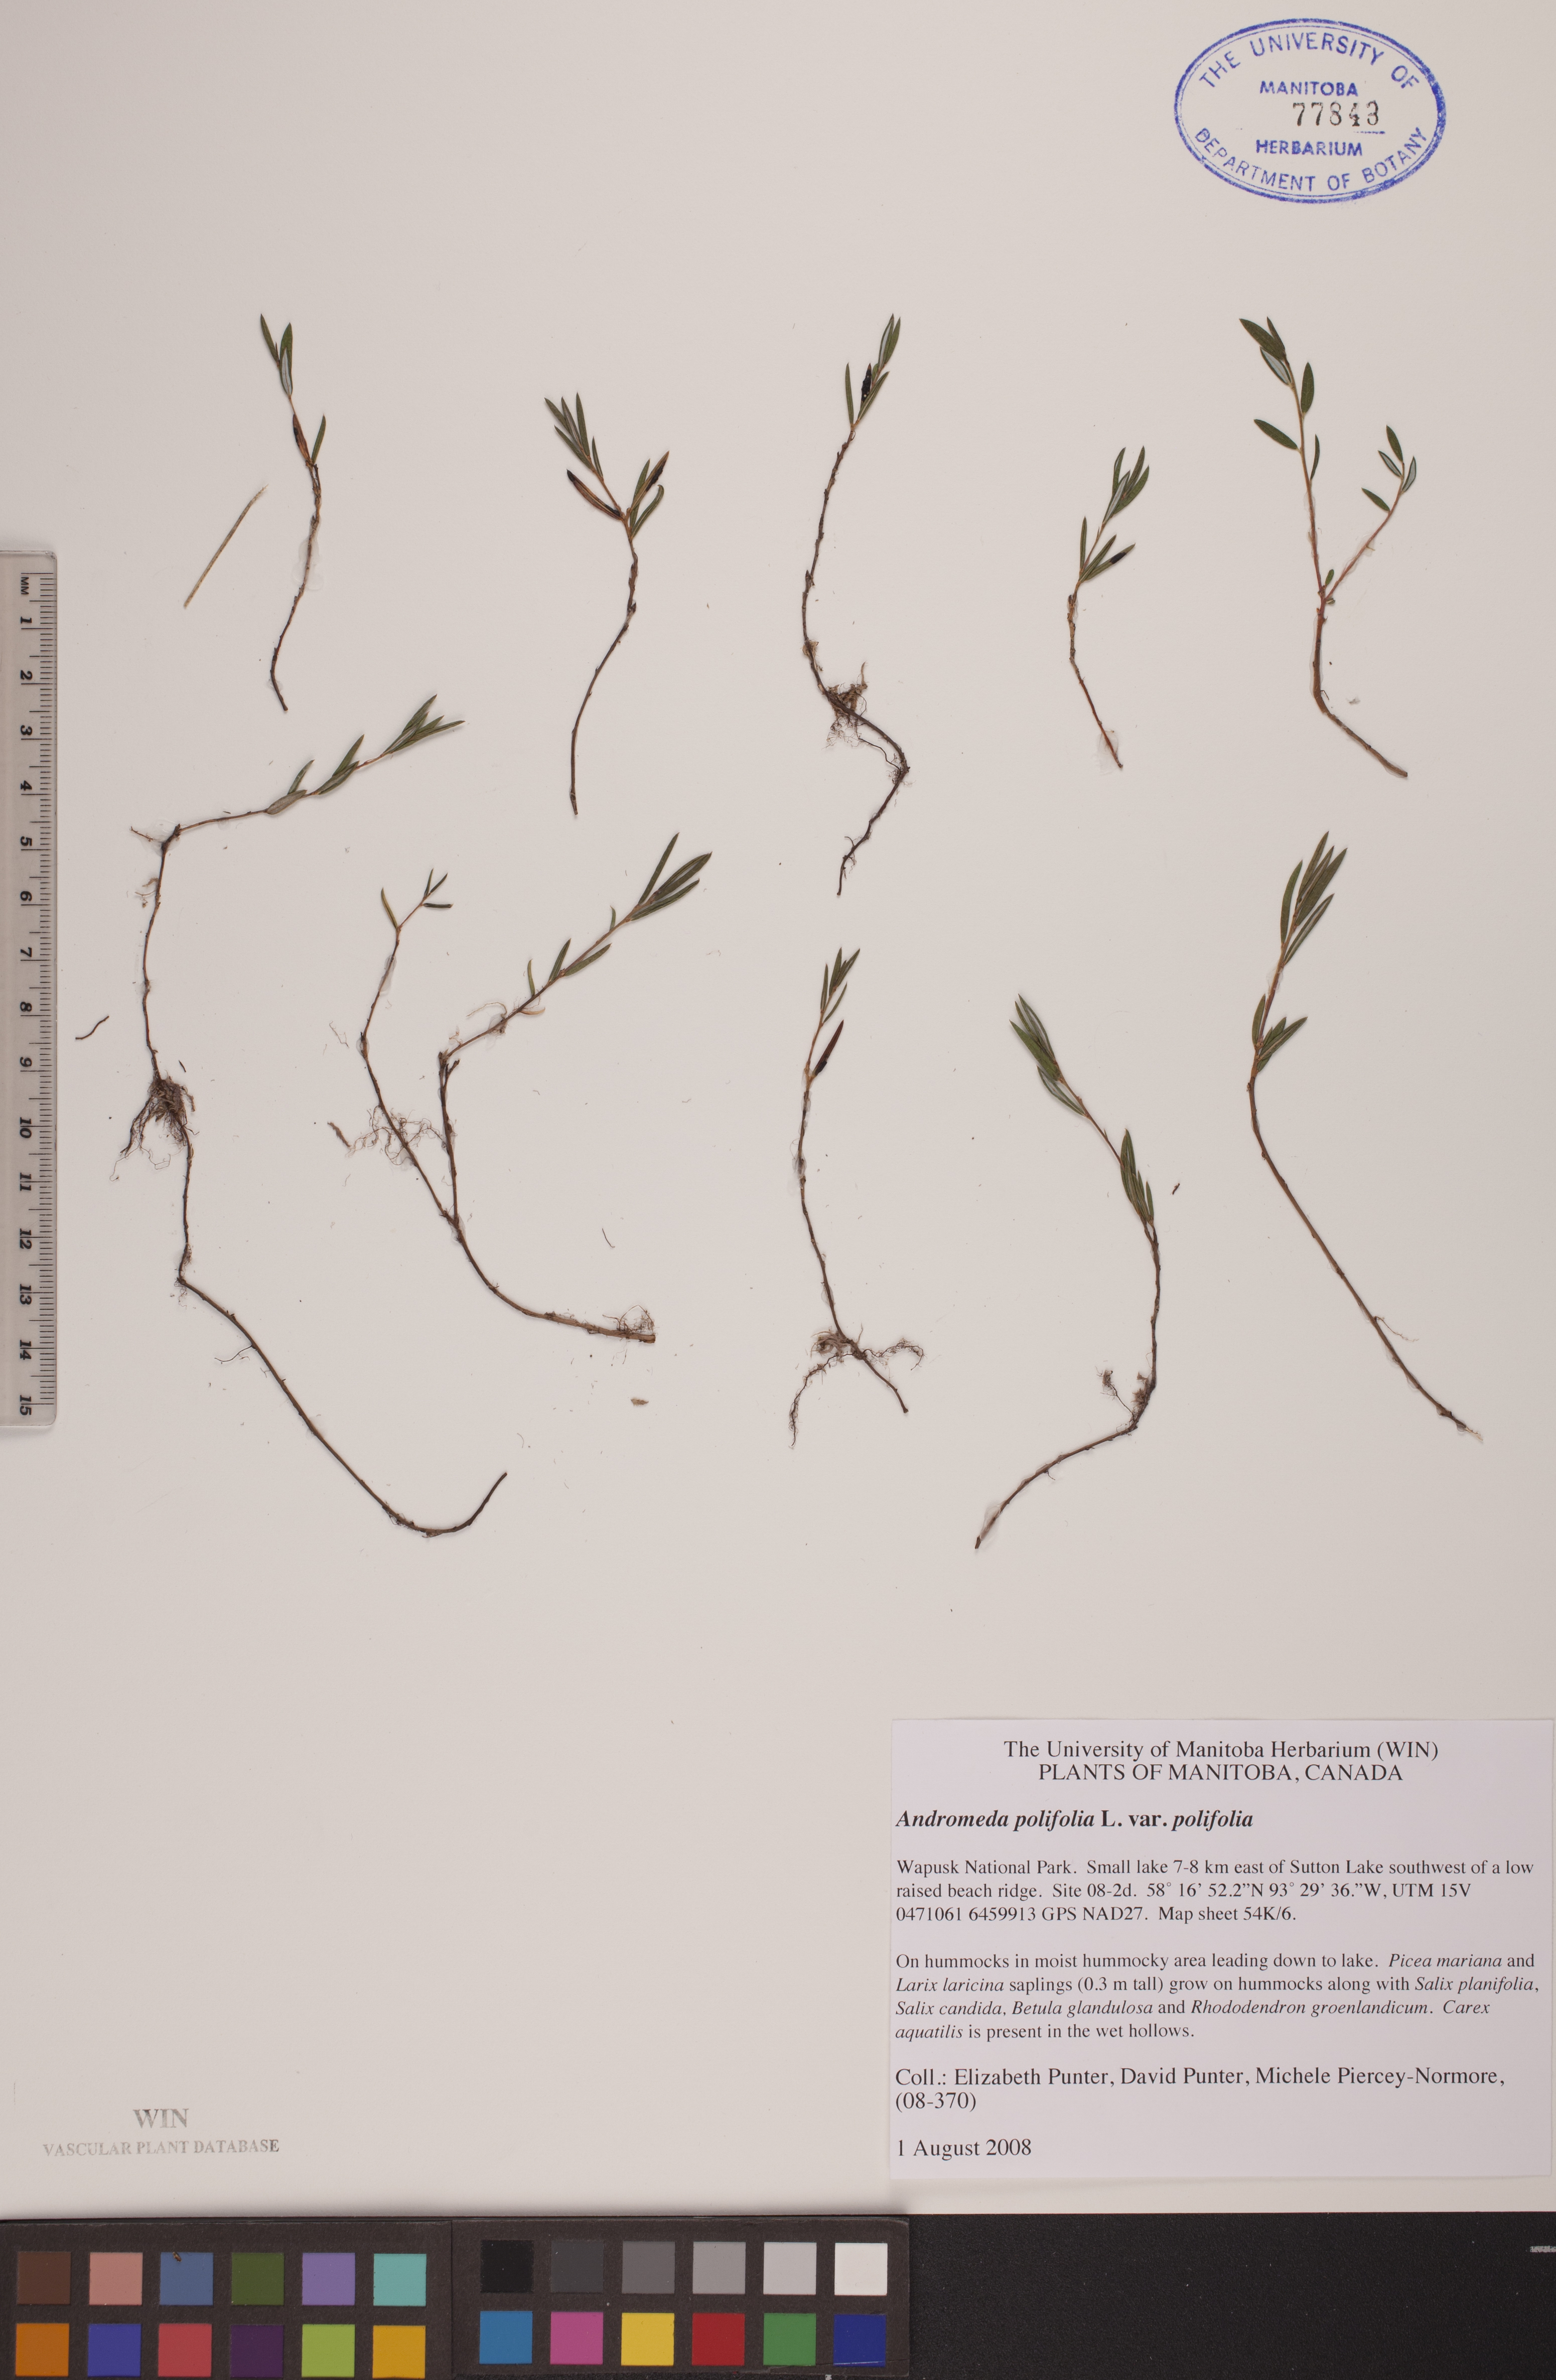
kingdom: Plantae
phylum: Tracheophyta
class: Magnoliopsida
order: Ericales
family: Ericaceae
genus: Andromeda
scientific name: Andromeda polifolia
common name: Bog-rosemary
